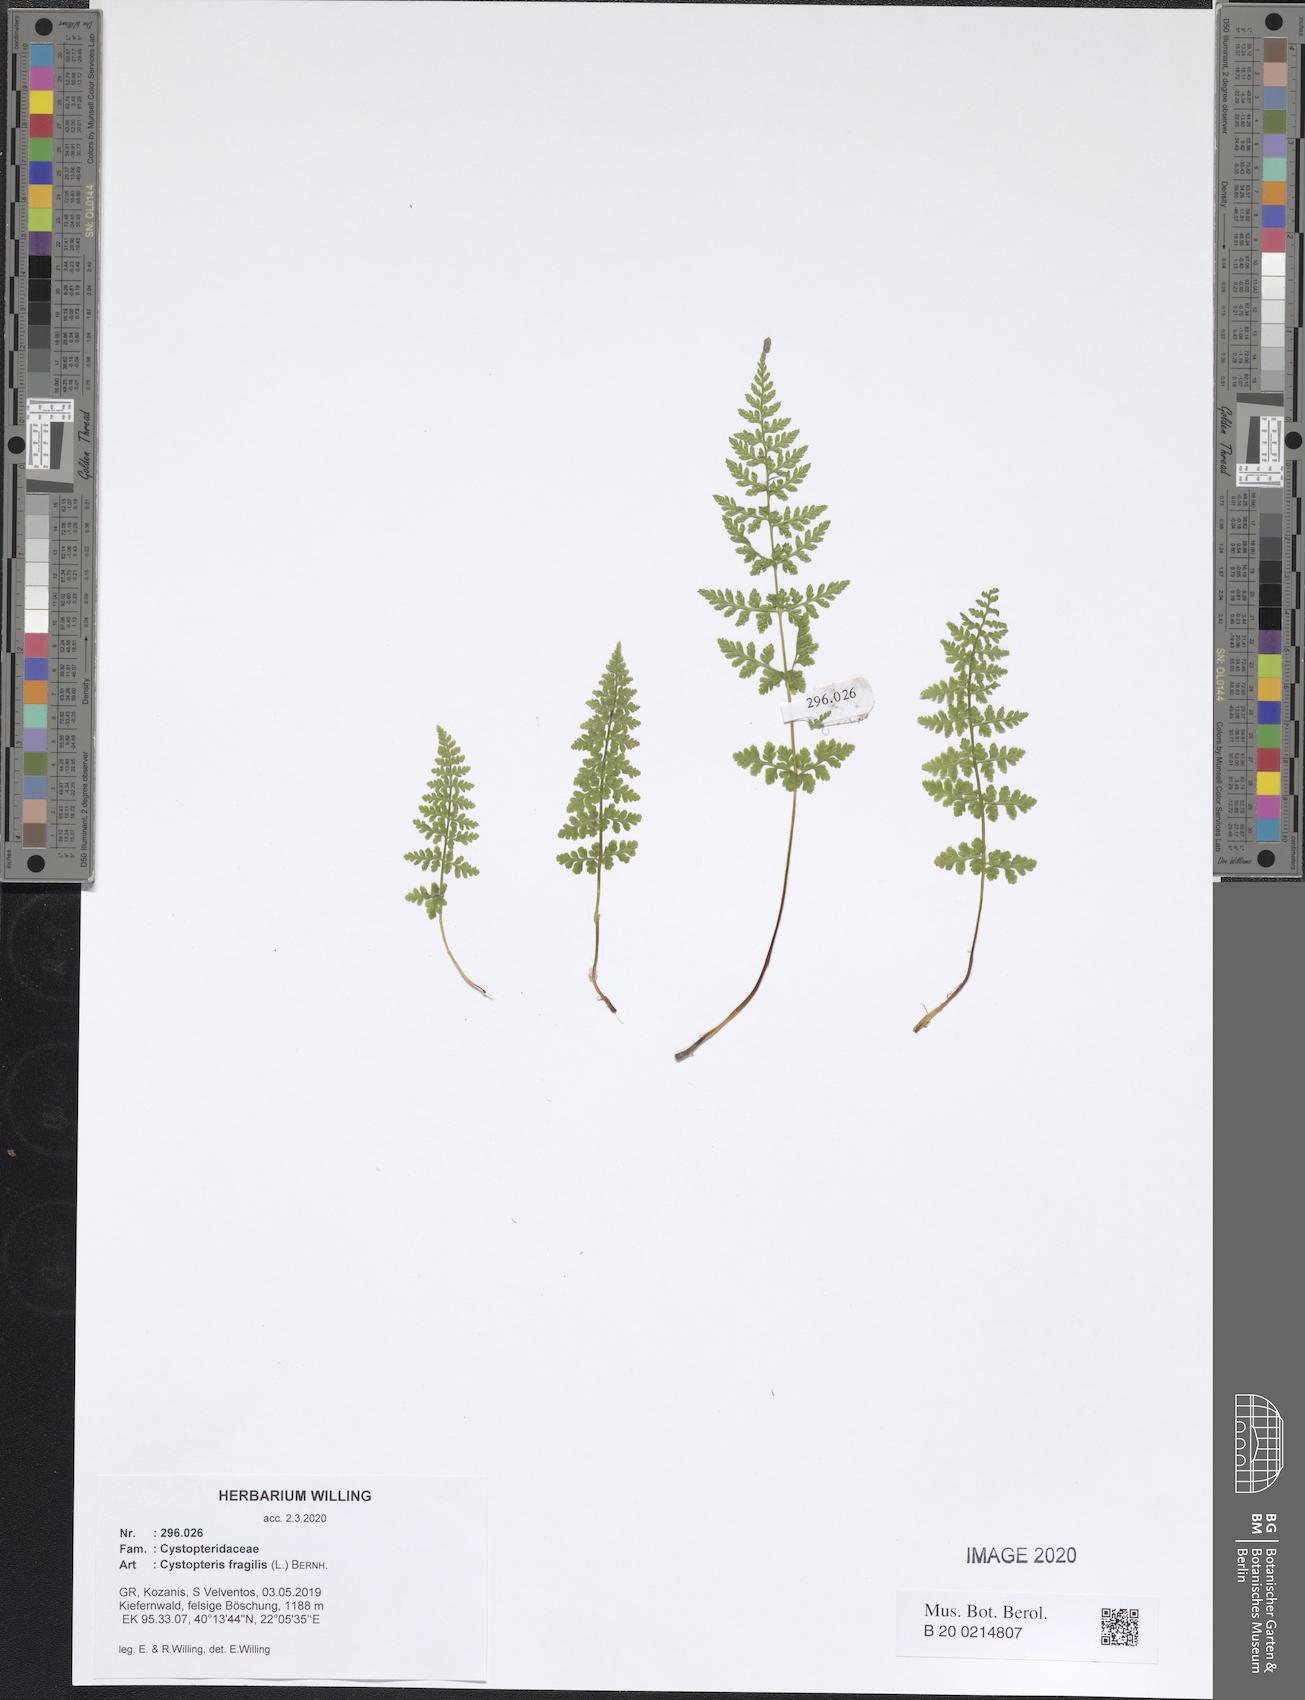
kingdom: Plantae
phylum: Tracheophyta
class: Polypodiopsida
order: Polypodiales
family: Cystopteridaceae
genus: Cystopteris
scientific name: Cystopteris fragilis
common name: Brittle bladder fern
